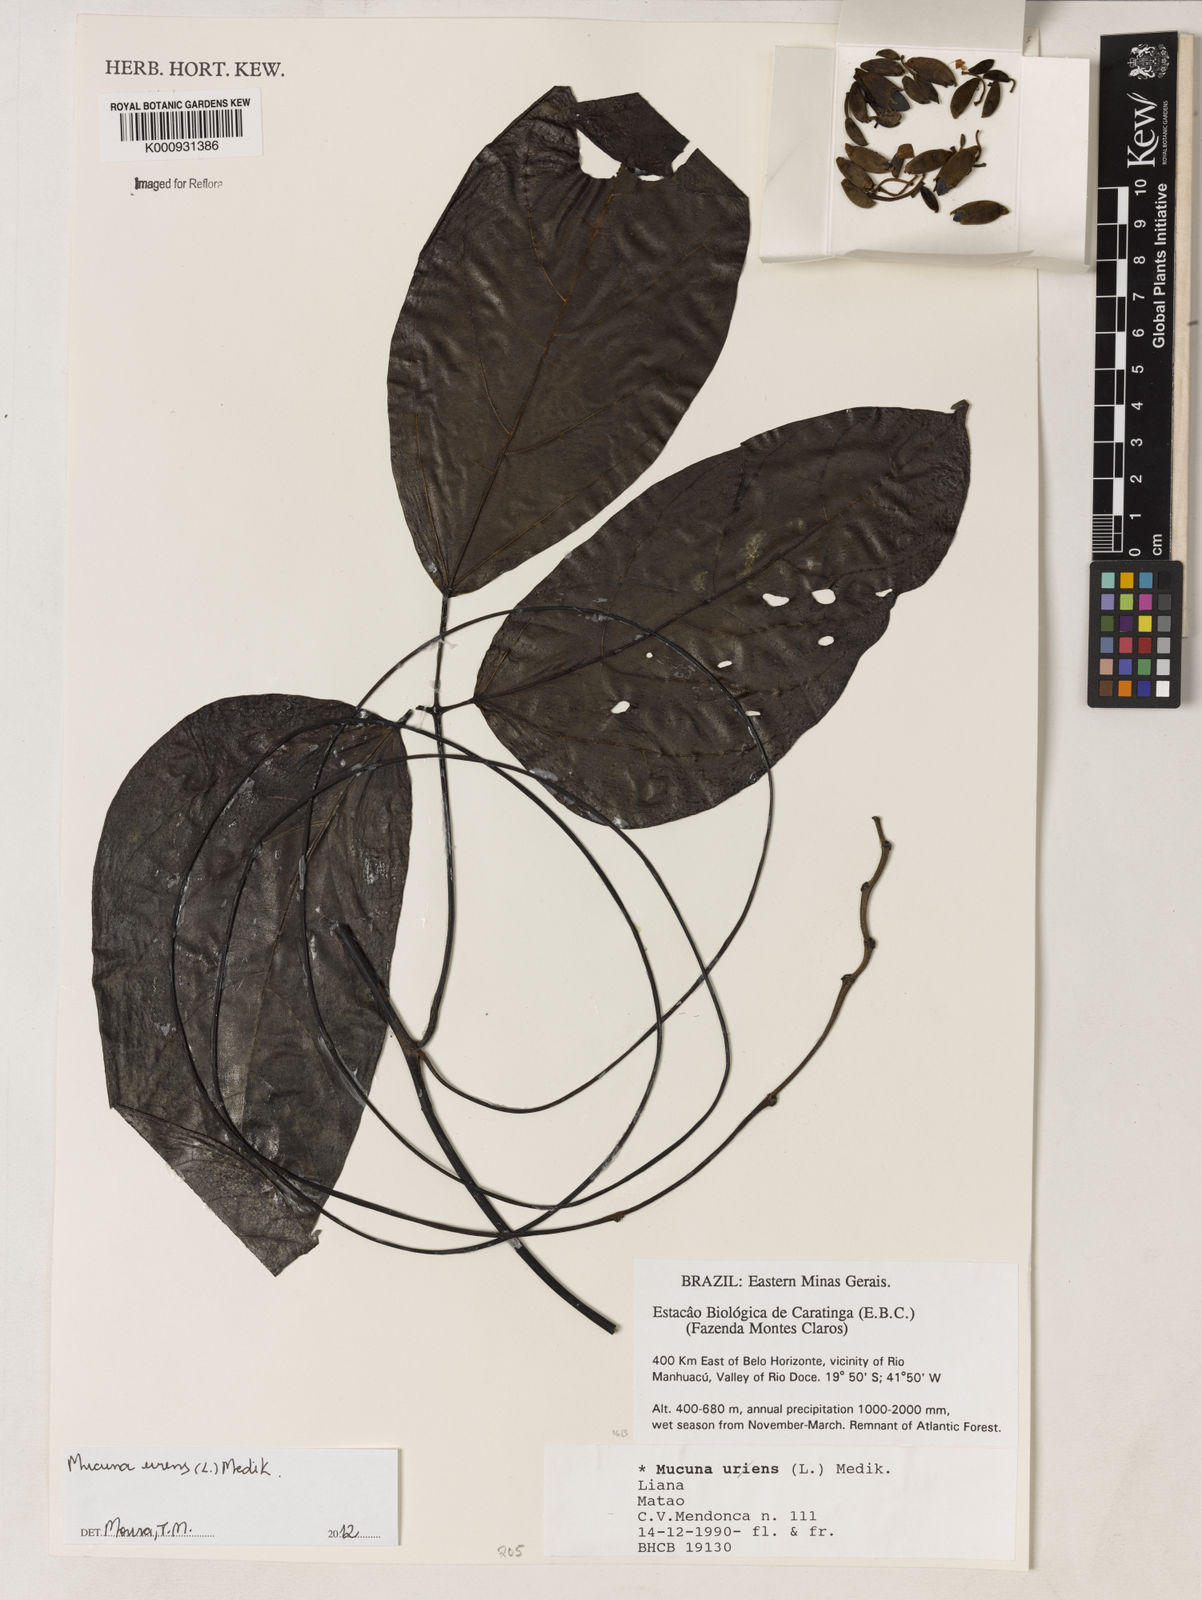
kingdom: Plantae
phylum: Tracheophyta
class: Magnoliopsida
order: Fabales
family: Fabaceae
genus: Mucuna
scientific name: Mucuna urens
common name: Red hamburger bean
